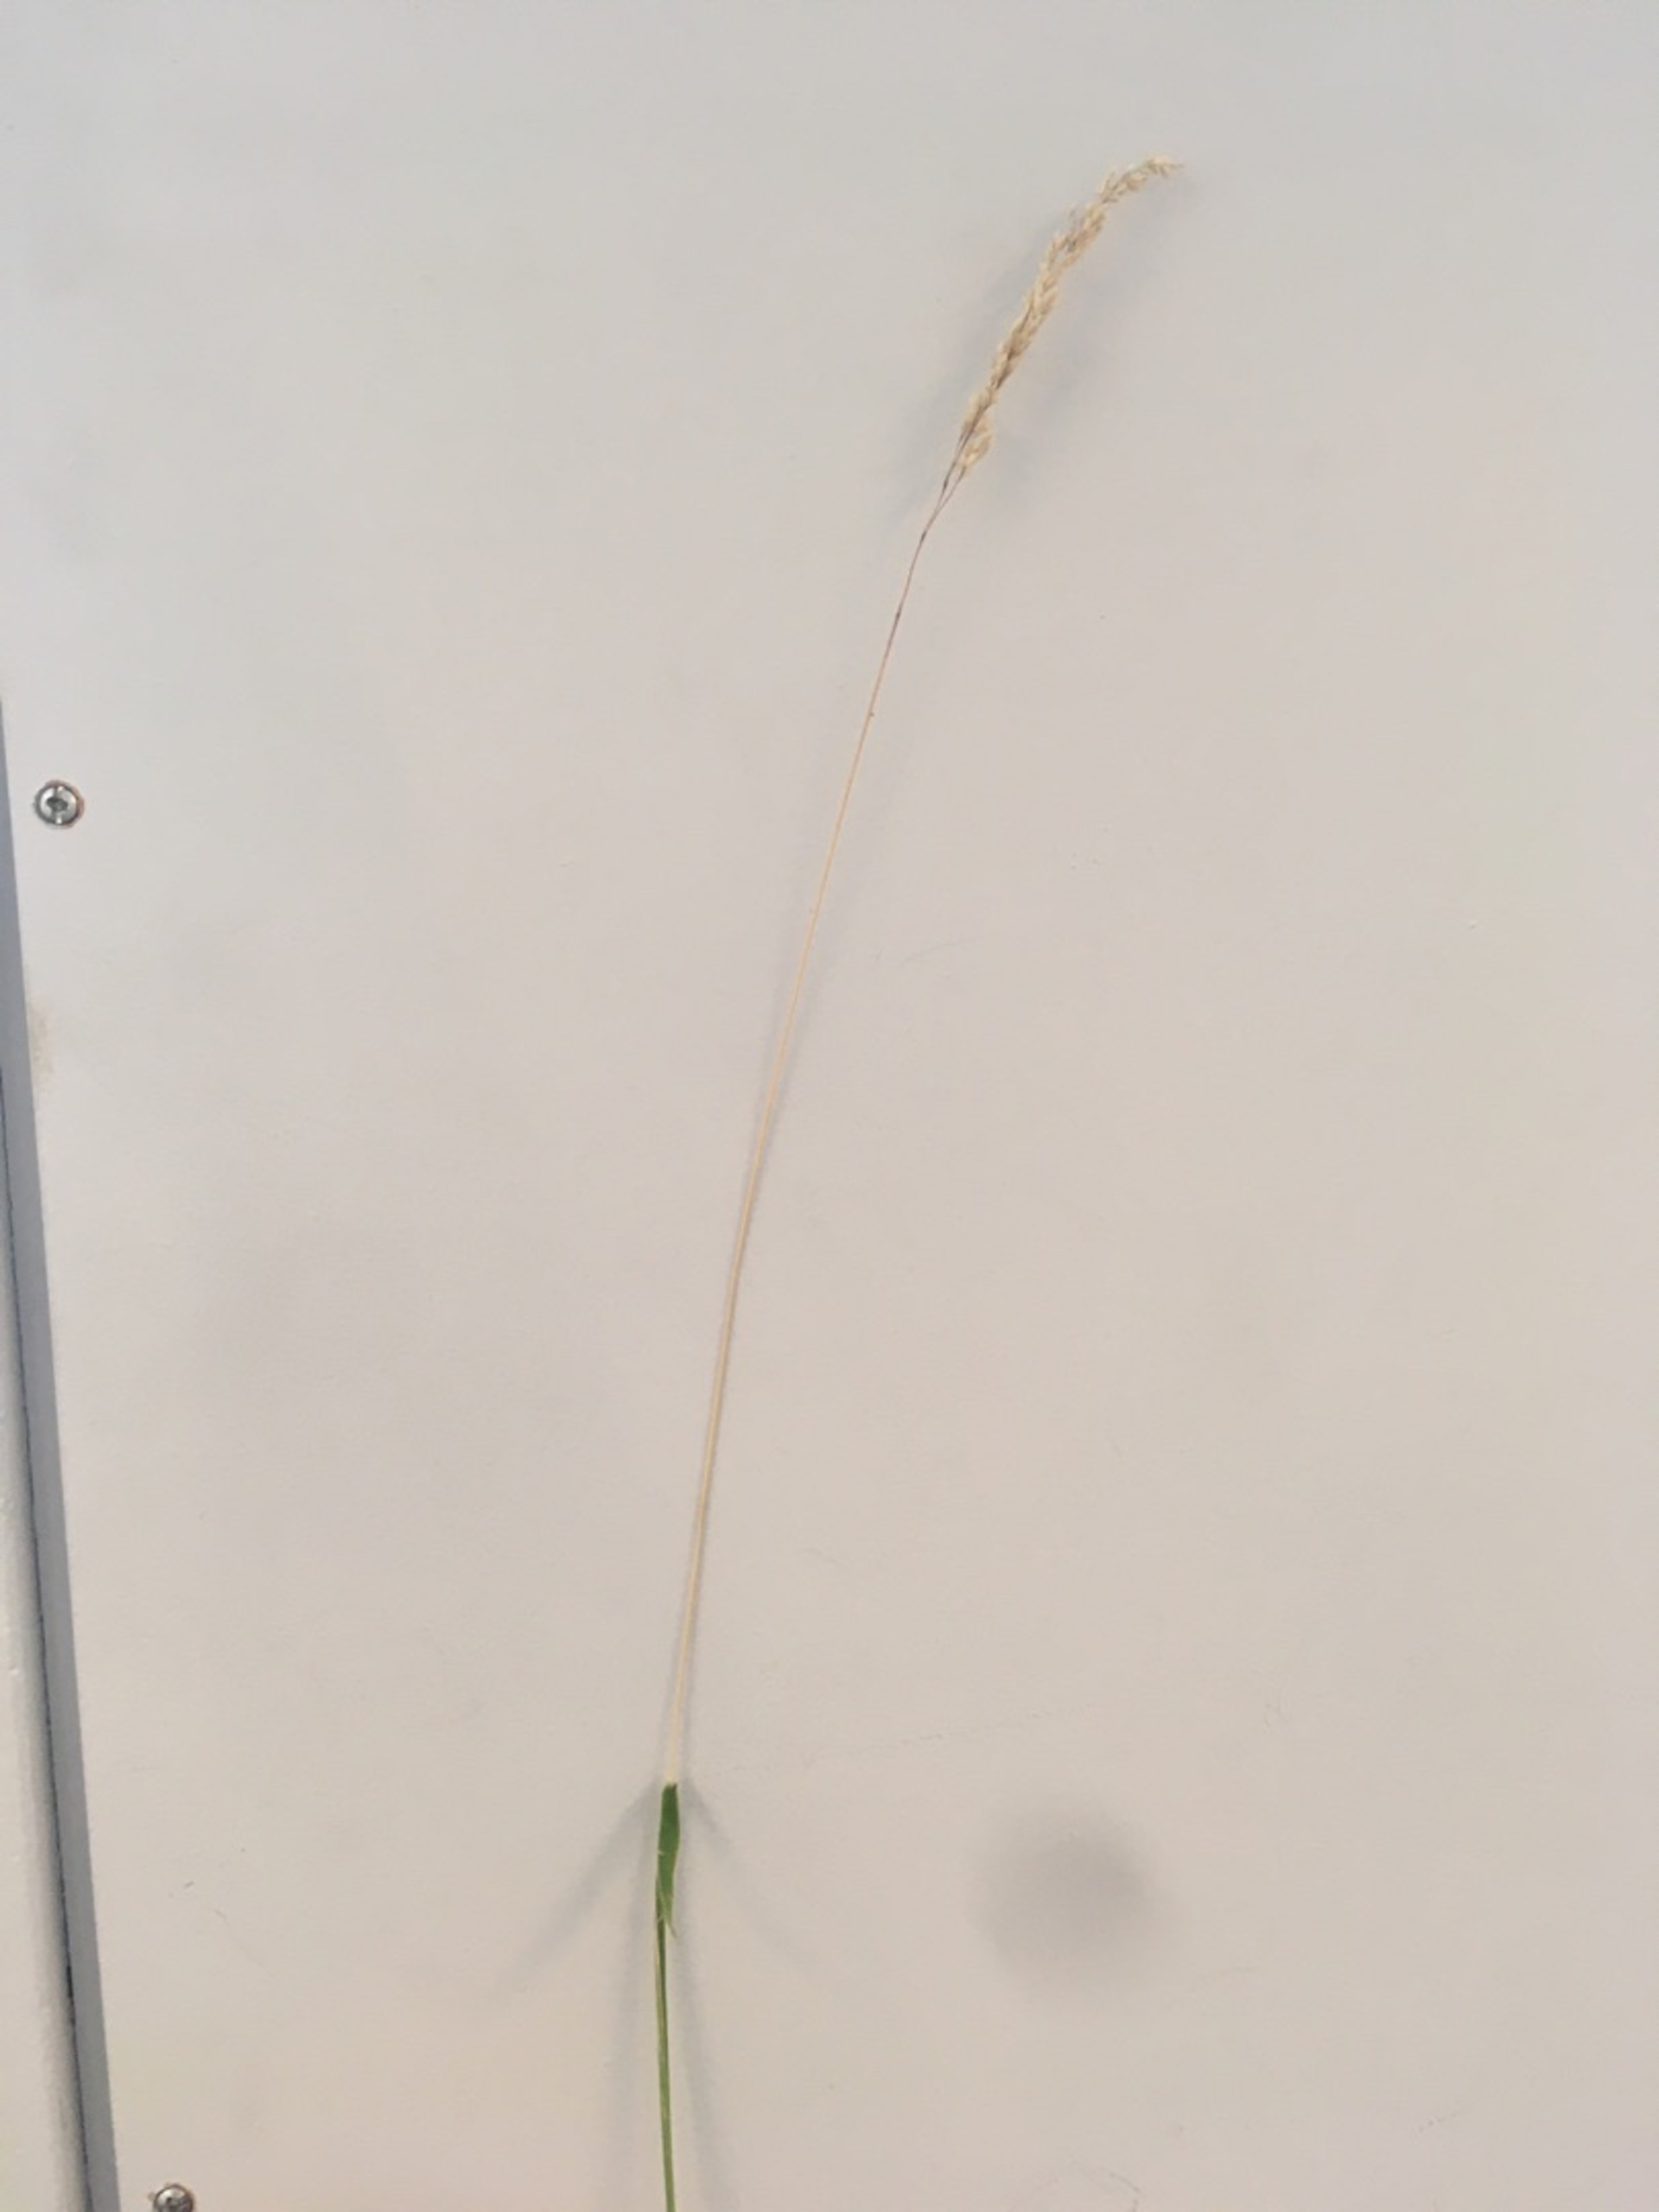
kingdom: Plantae
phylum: Tracheophyta
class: Liliopsida
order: Poales
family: Poaceae
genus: Holcus
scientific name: Holcus lanatus
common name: Fløjlsgræs
